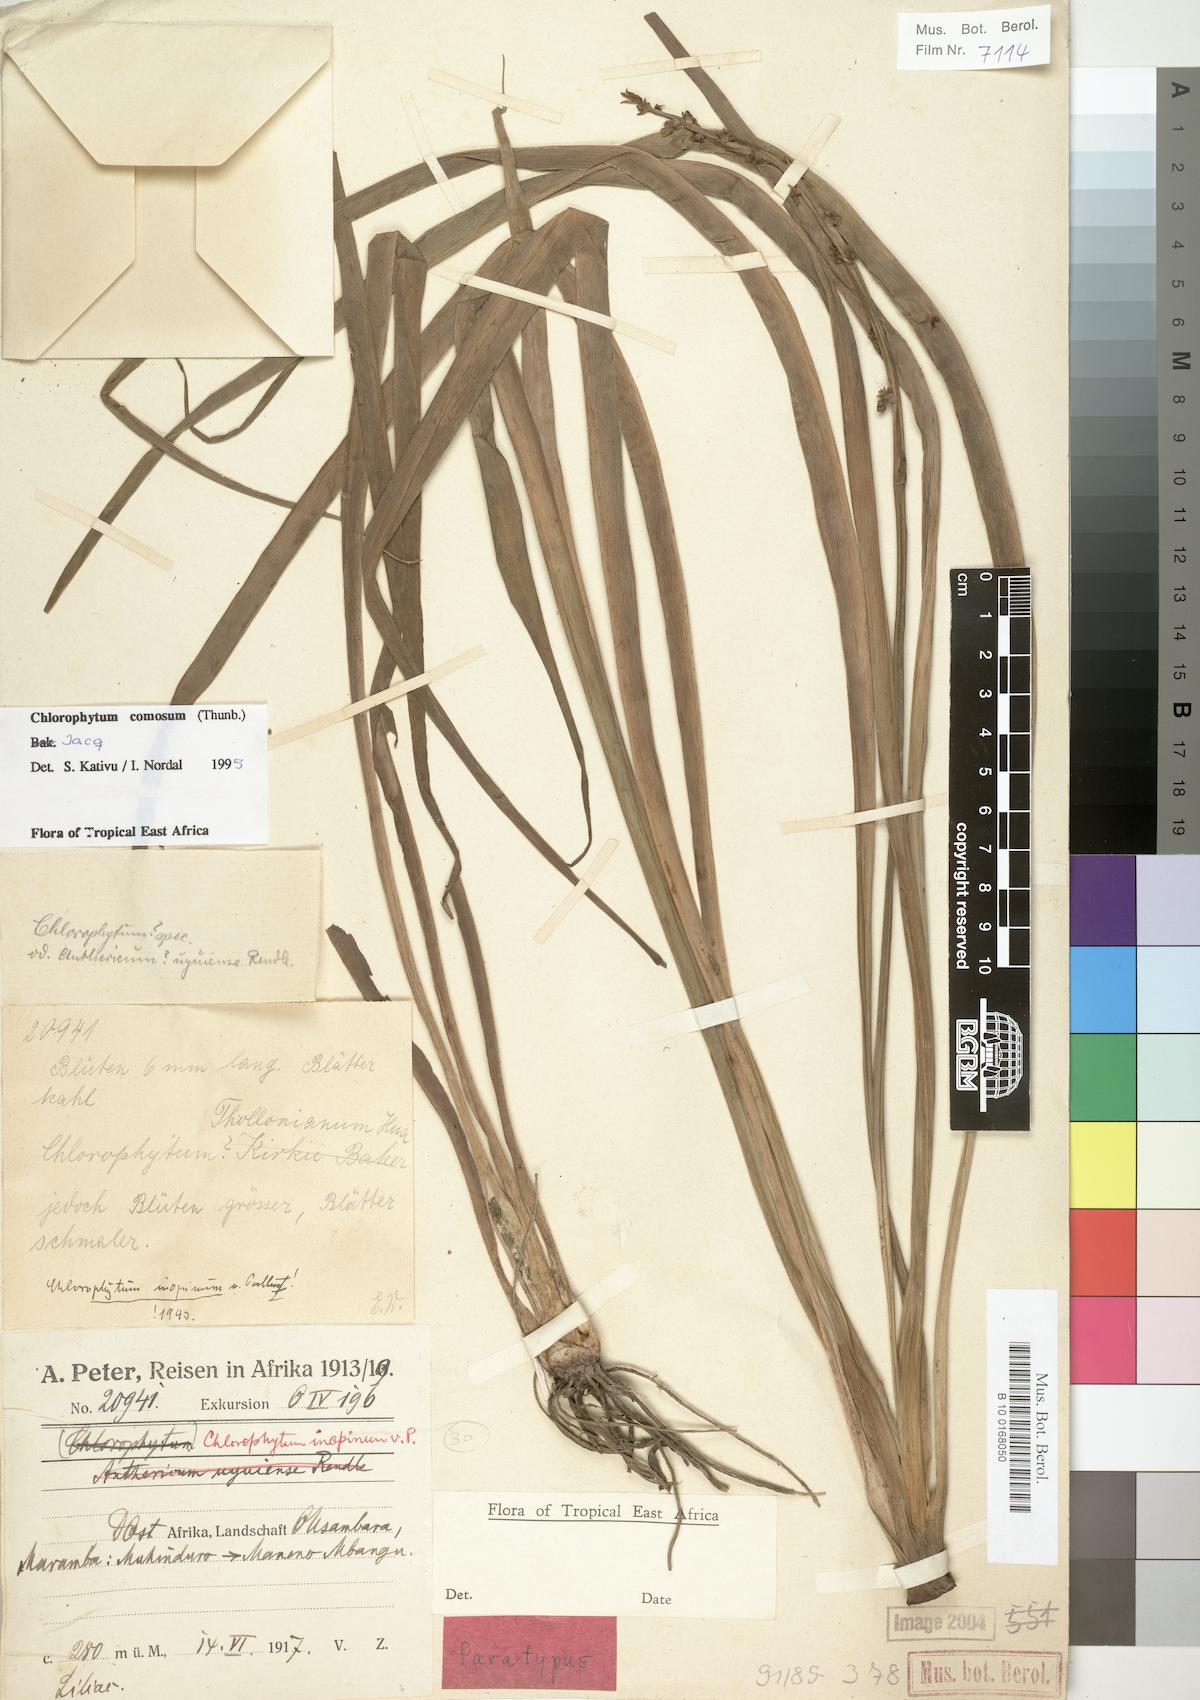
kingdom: Plantae
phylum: Tracheophyta
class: Liliopsida
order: Asparagales
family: Asparagaceae
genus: Chlorophytum
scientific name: Chlorophytum comosum
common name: Spider plant
